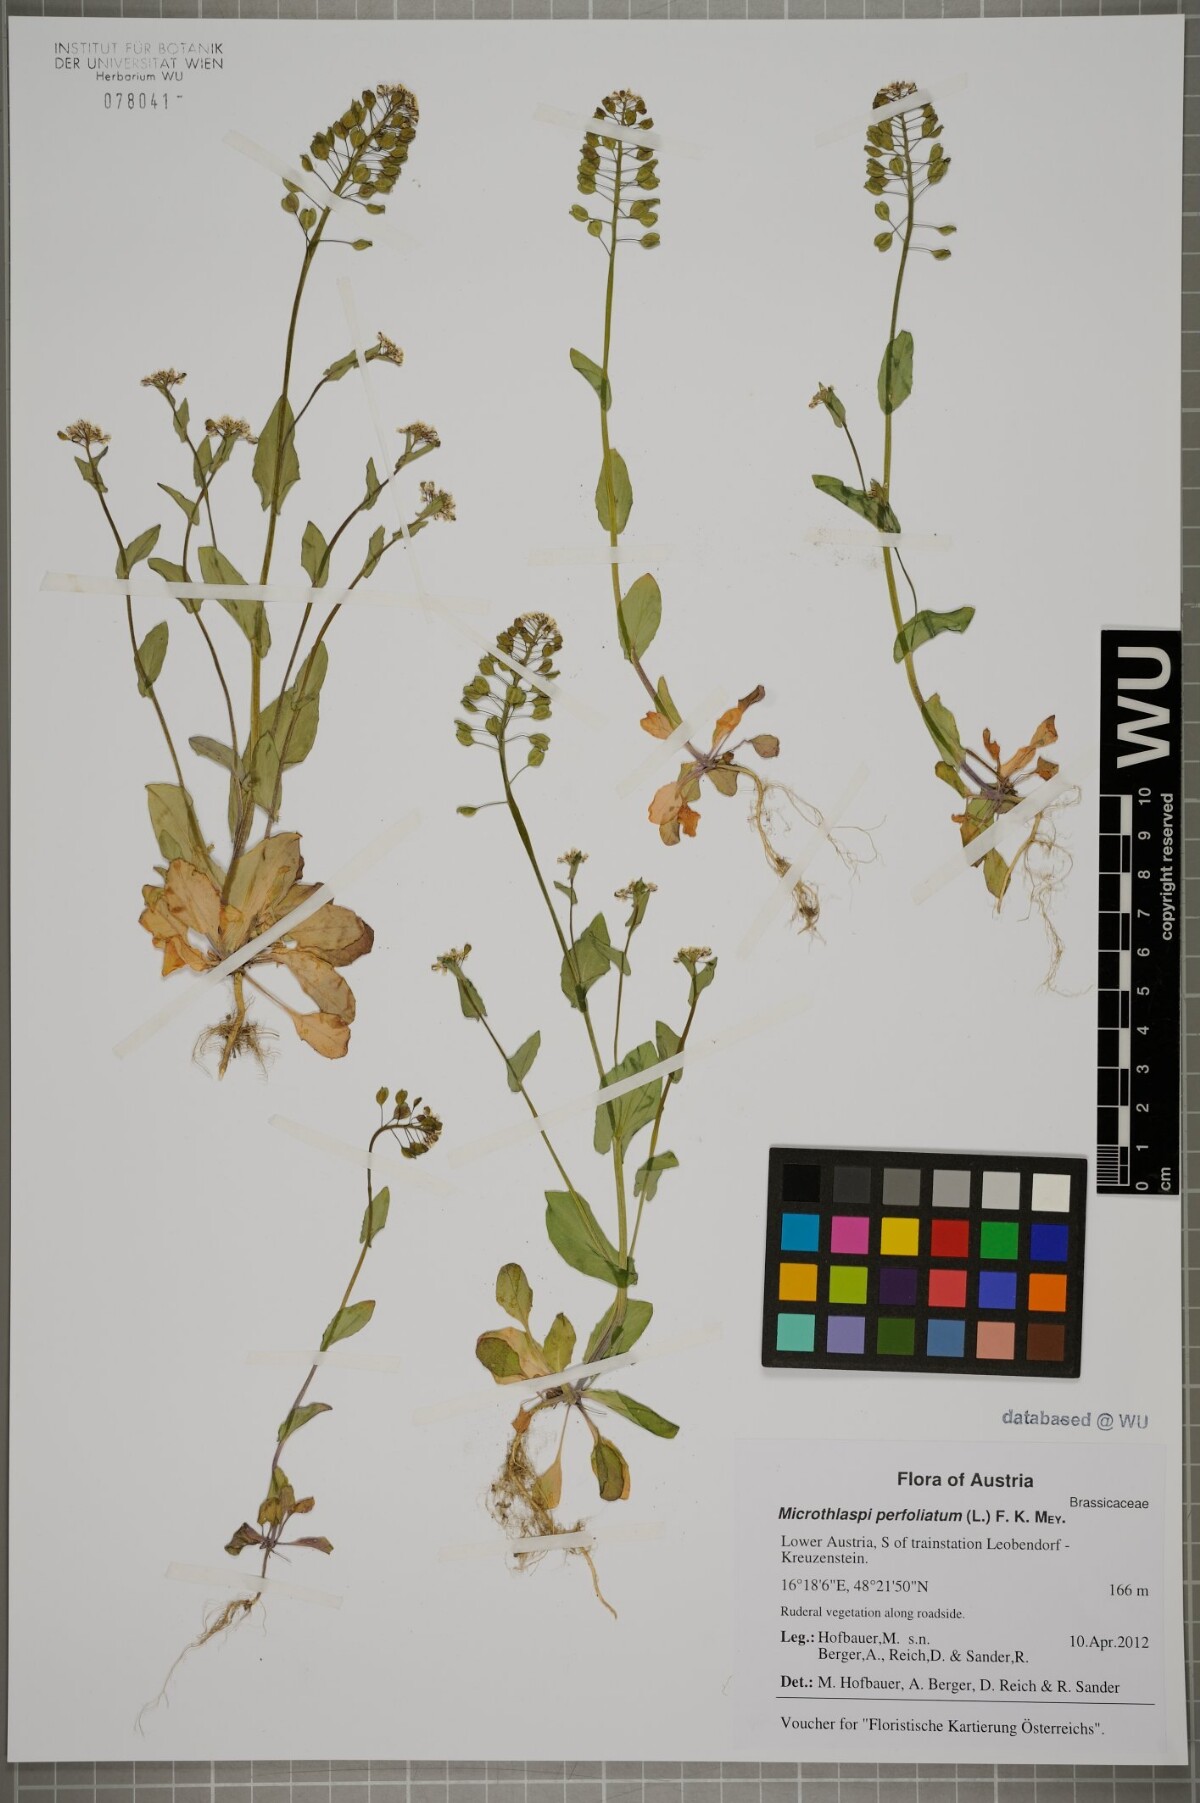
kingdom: Plantae
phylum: Tracheophyta
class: Magnoliopsida
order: Brassicales
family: Brassicaceae
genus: Noccaea
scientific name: Noccaea perfoliata
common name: Perfoliate pennycress
